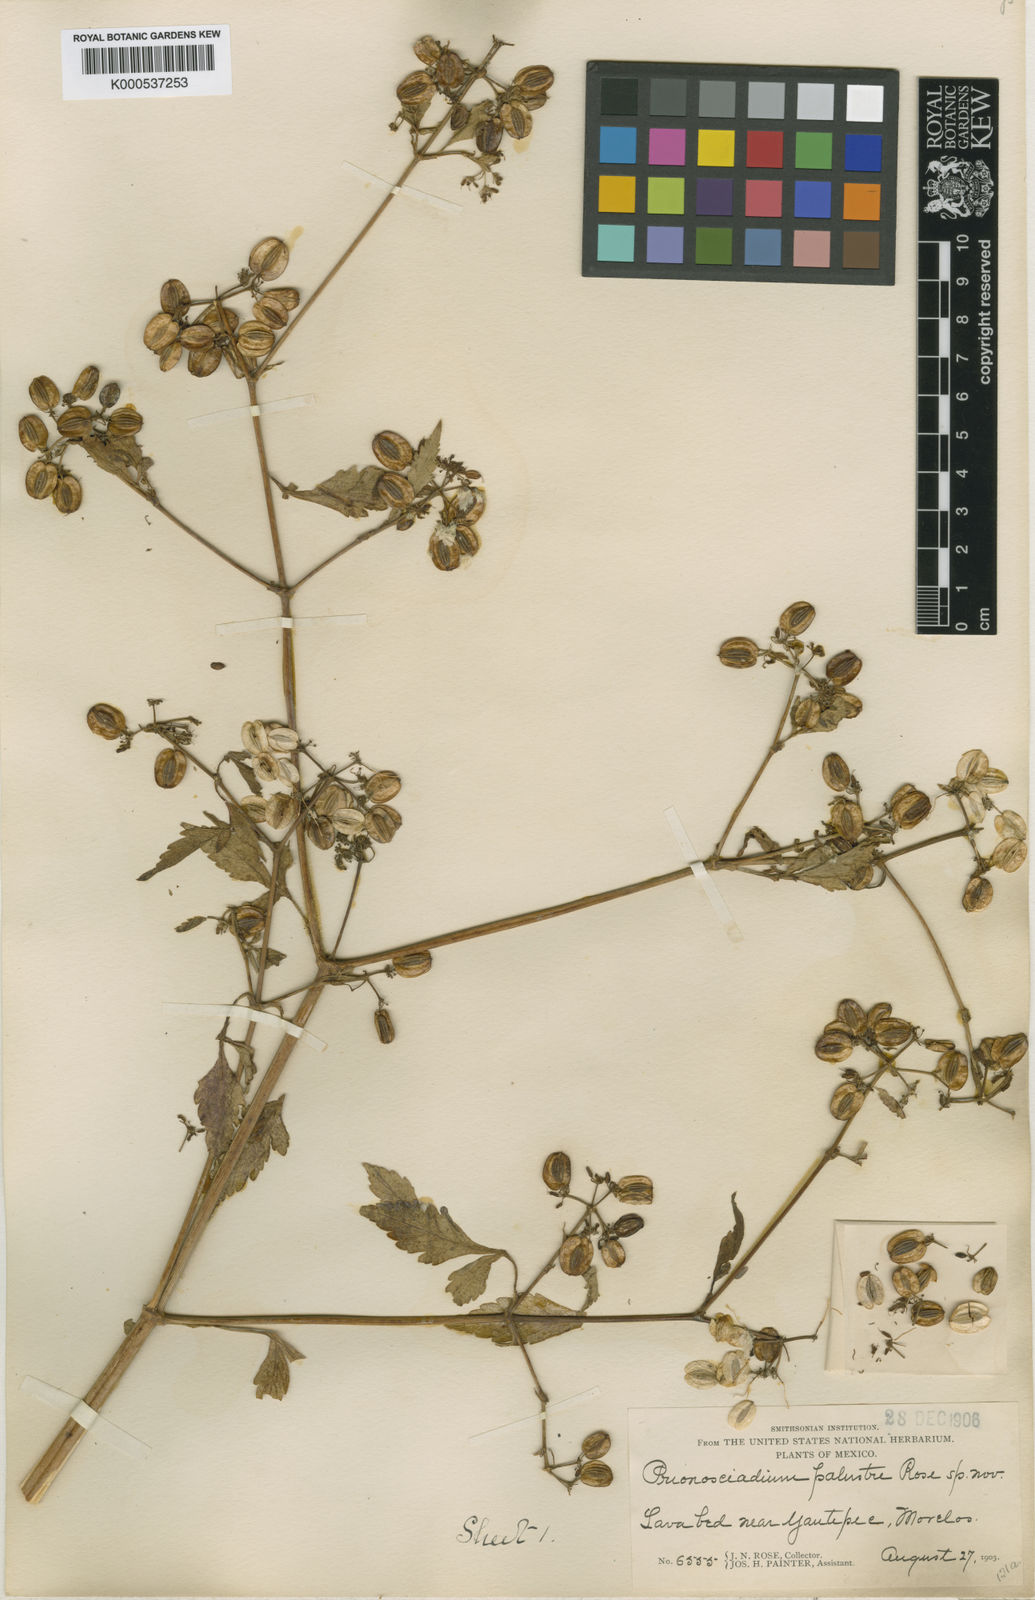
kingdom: Plantae
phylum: Tracheophyta
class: Magnoliopsida
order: Apiales
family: Apiaceae
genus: Prionosciadium
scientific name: Prionosciadium diversifolium
